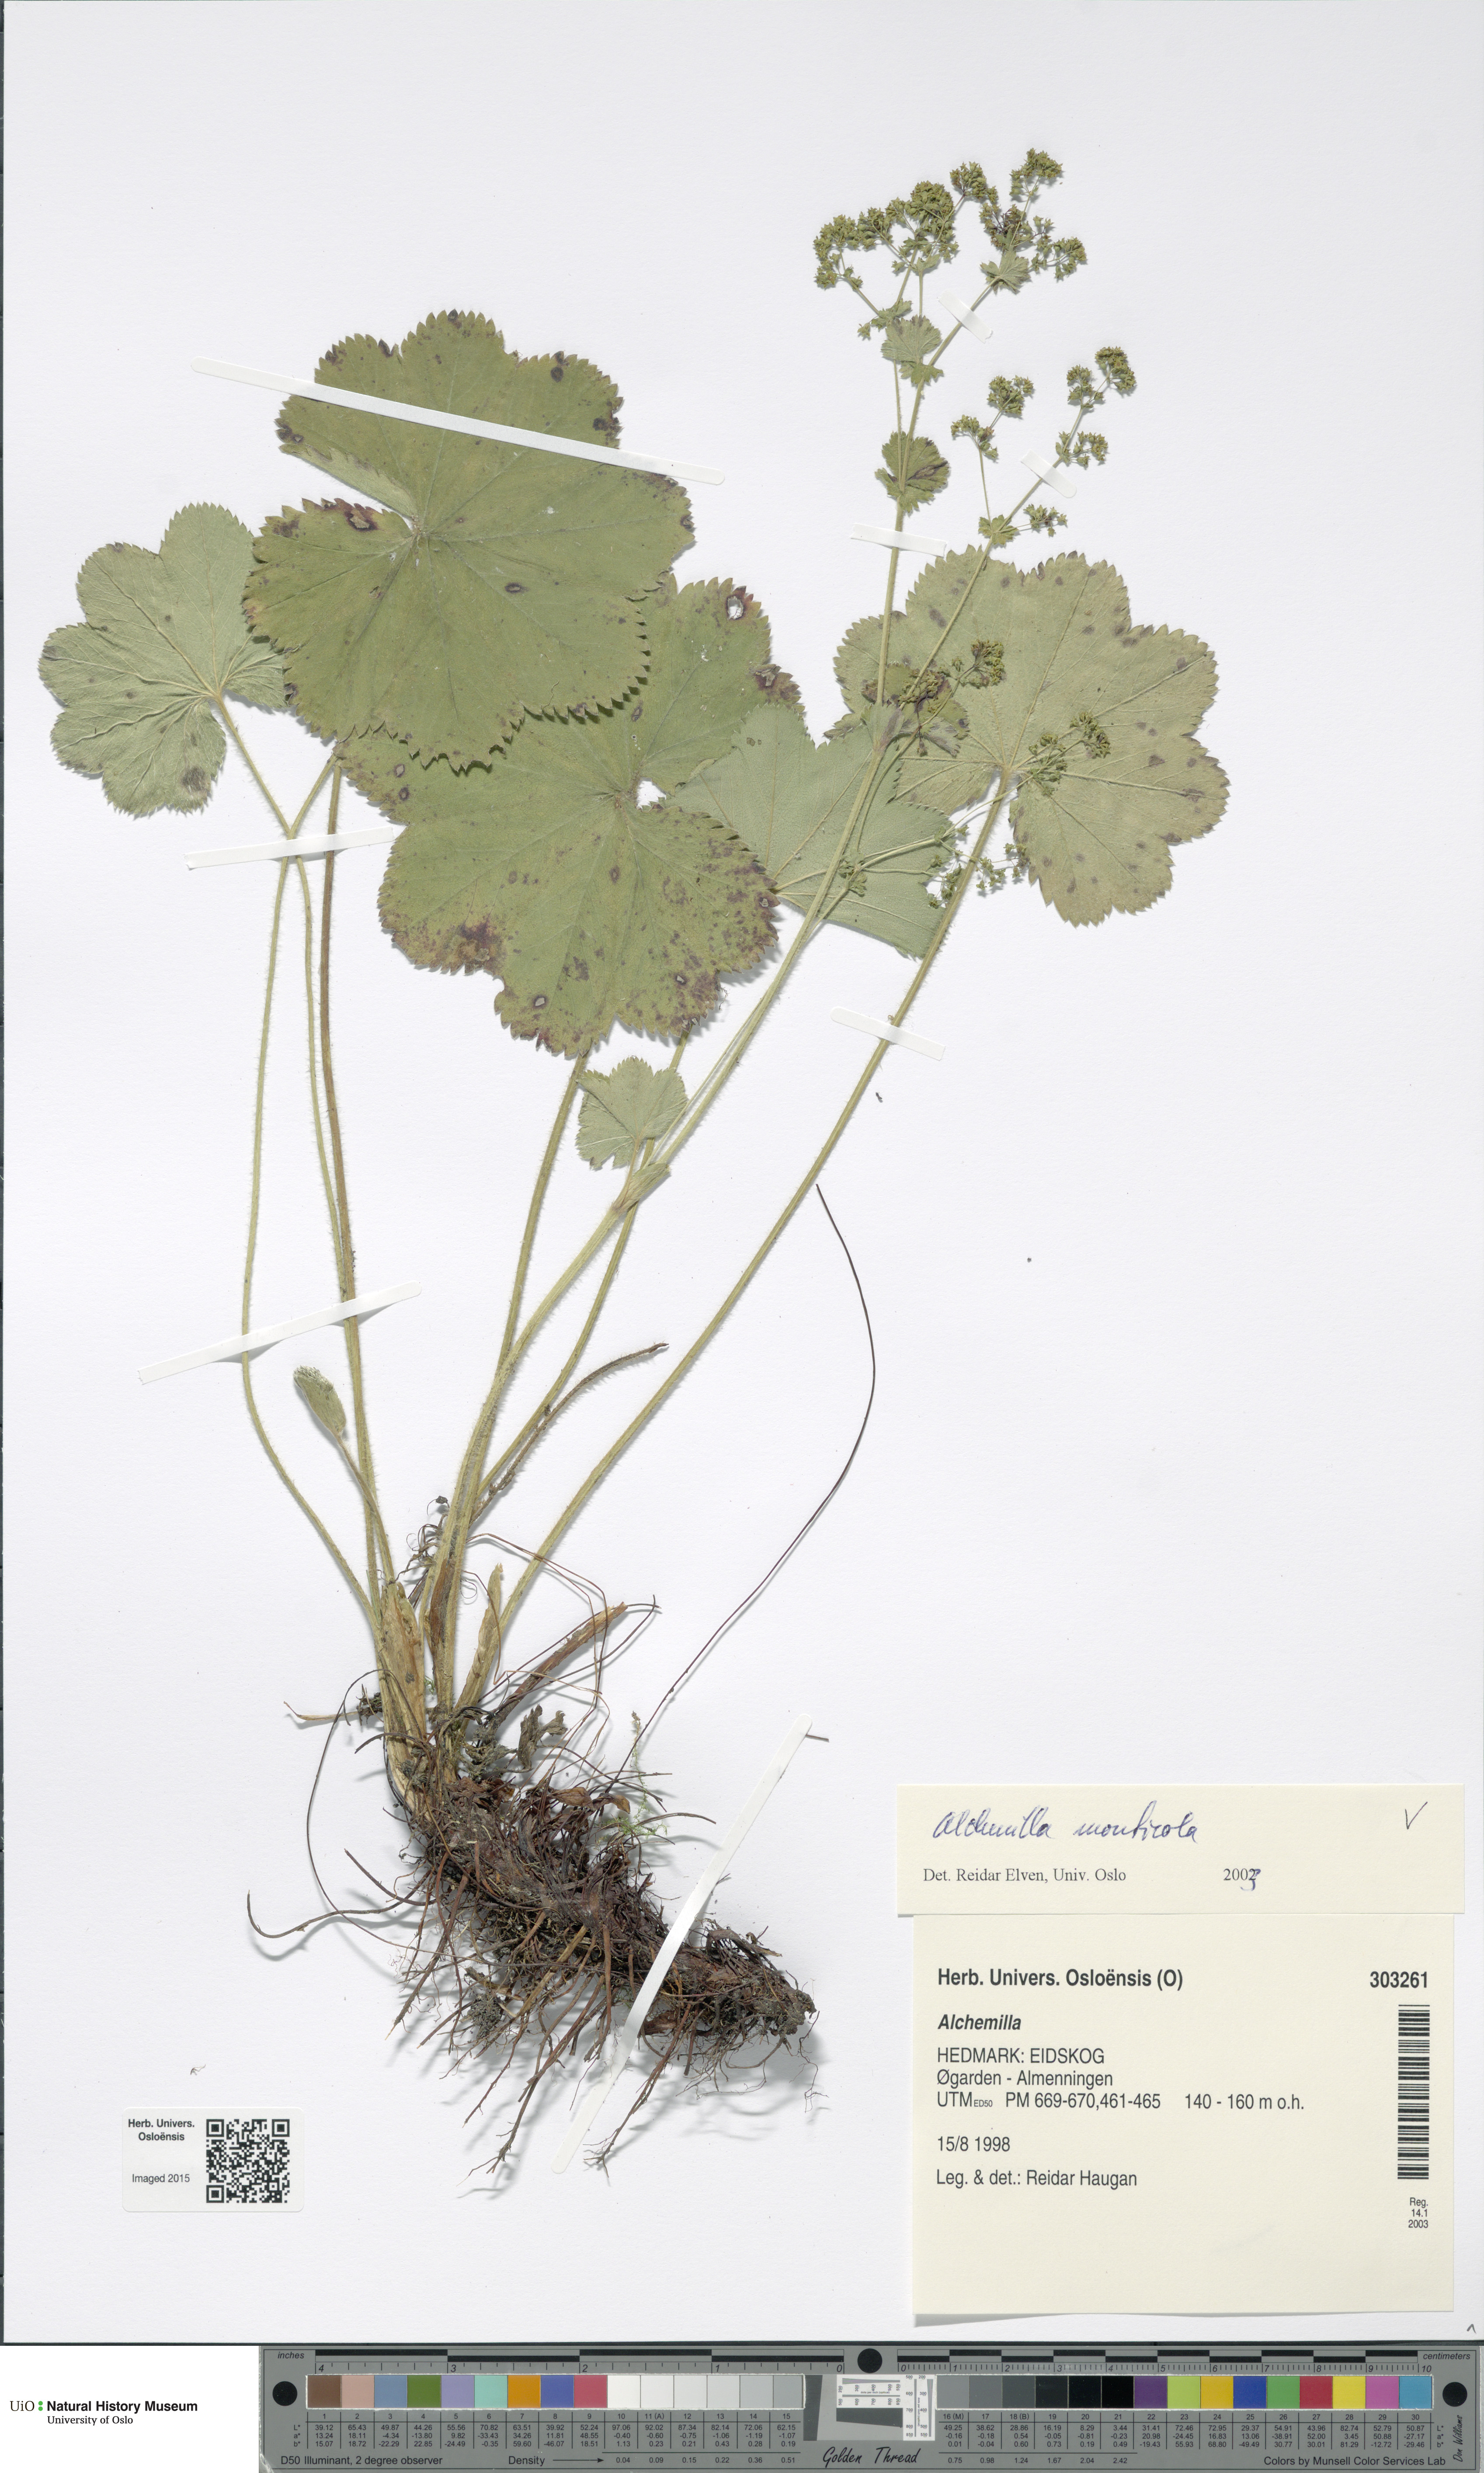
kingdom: Plantae
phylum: Tracheophyta
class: Magnoliopsida
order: Rosales
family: Rosaceae
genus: Alchemilla
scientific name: Alchemilla monticola
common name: Hairy lady's mantle
